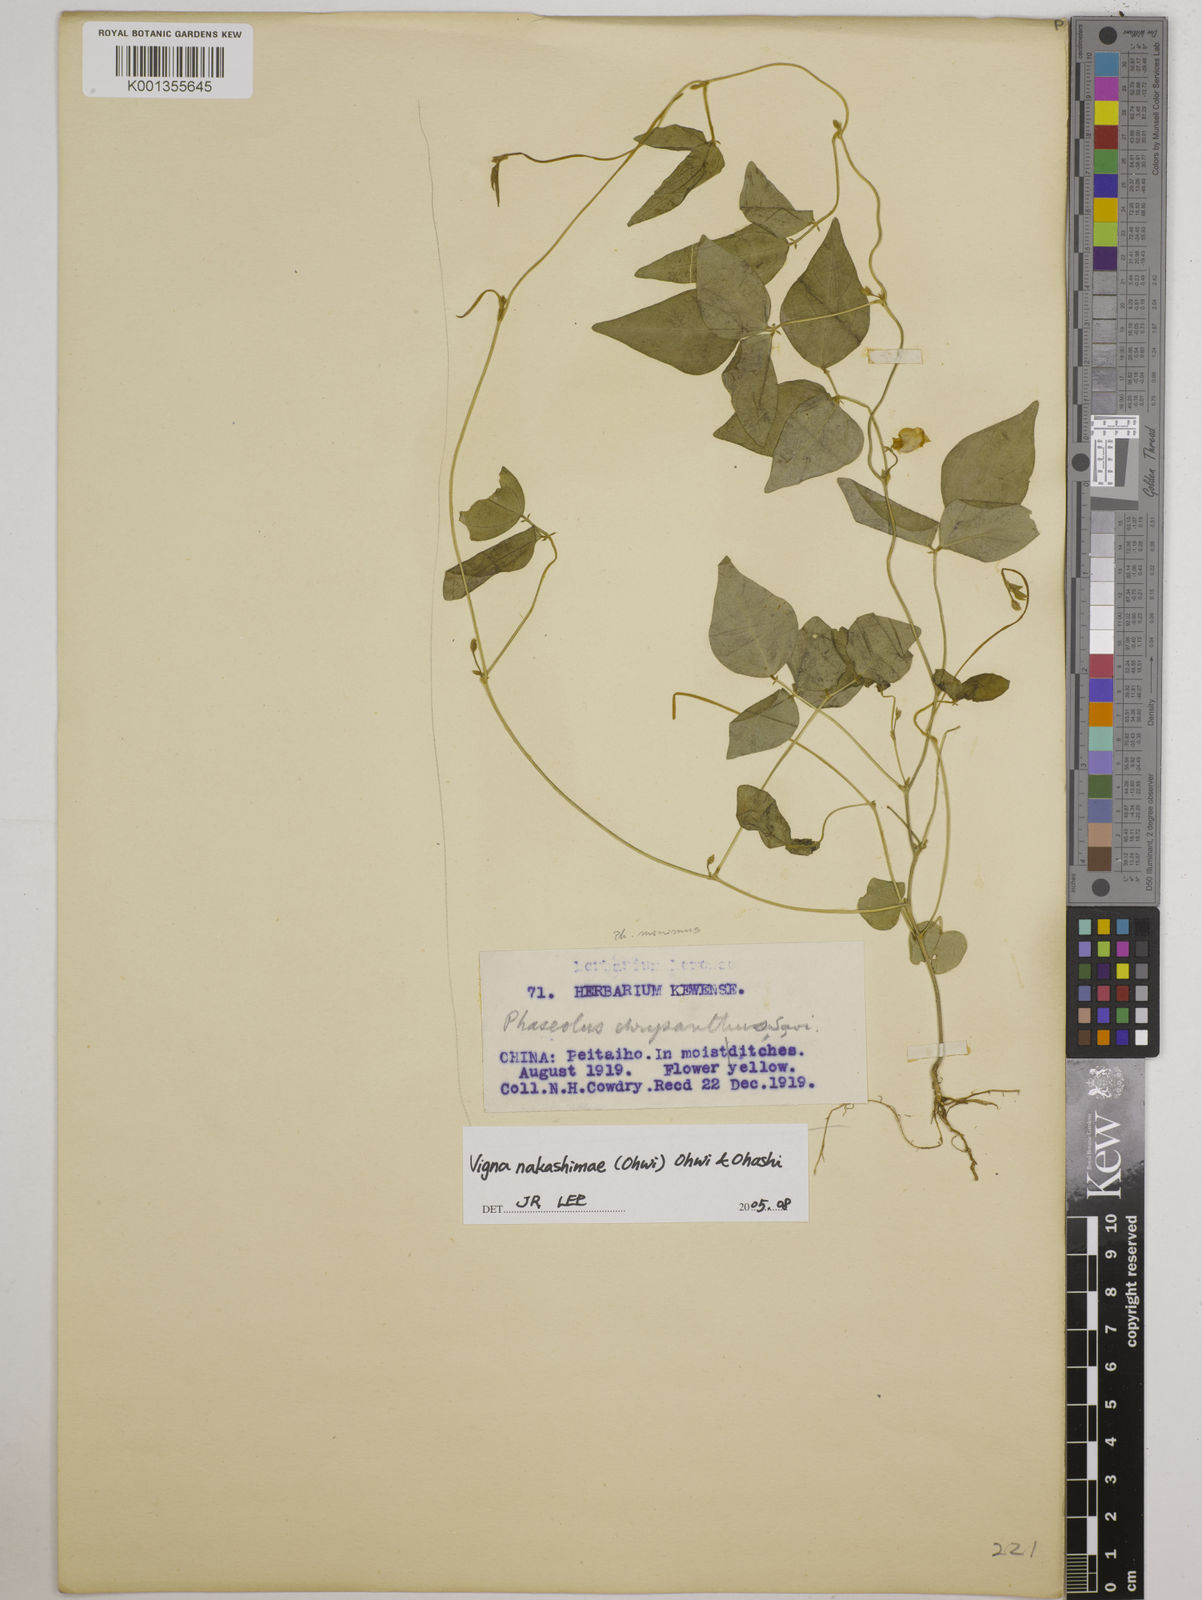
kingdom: Plantae
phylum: Tracheophyta
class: Magnoliopsida
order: Fabales
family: Fabaceae
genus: Vigna
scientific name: Vigna minima
